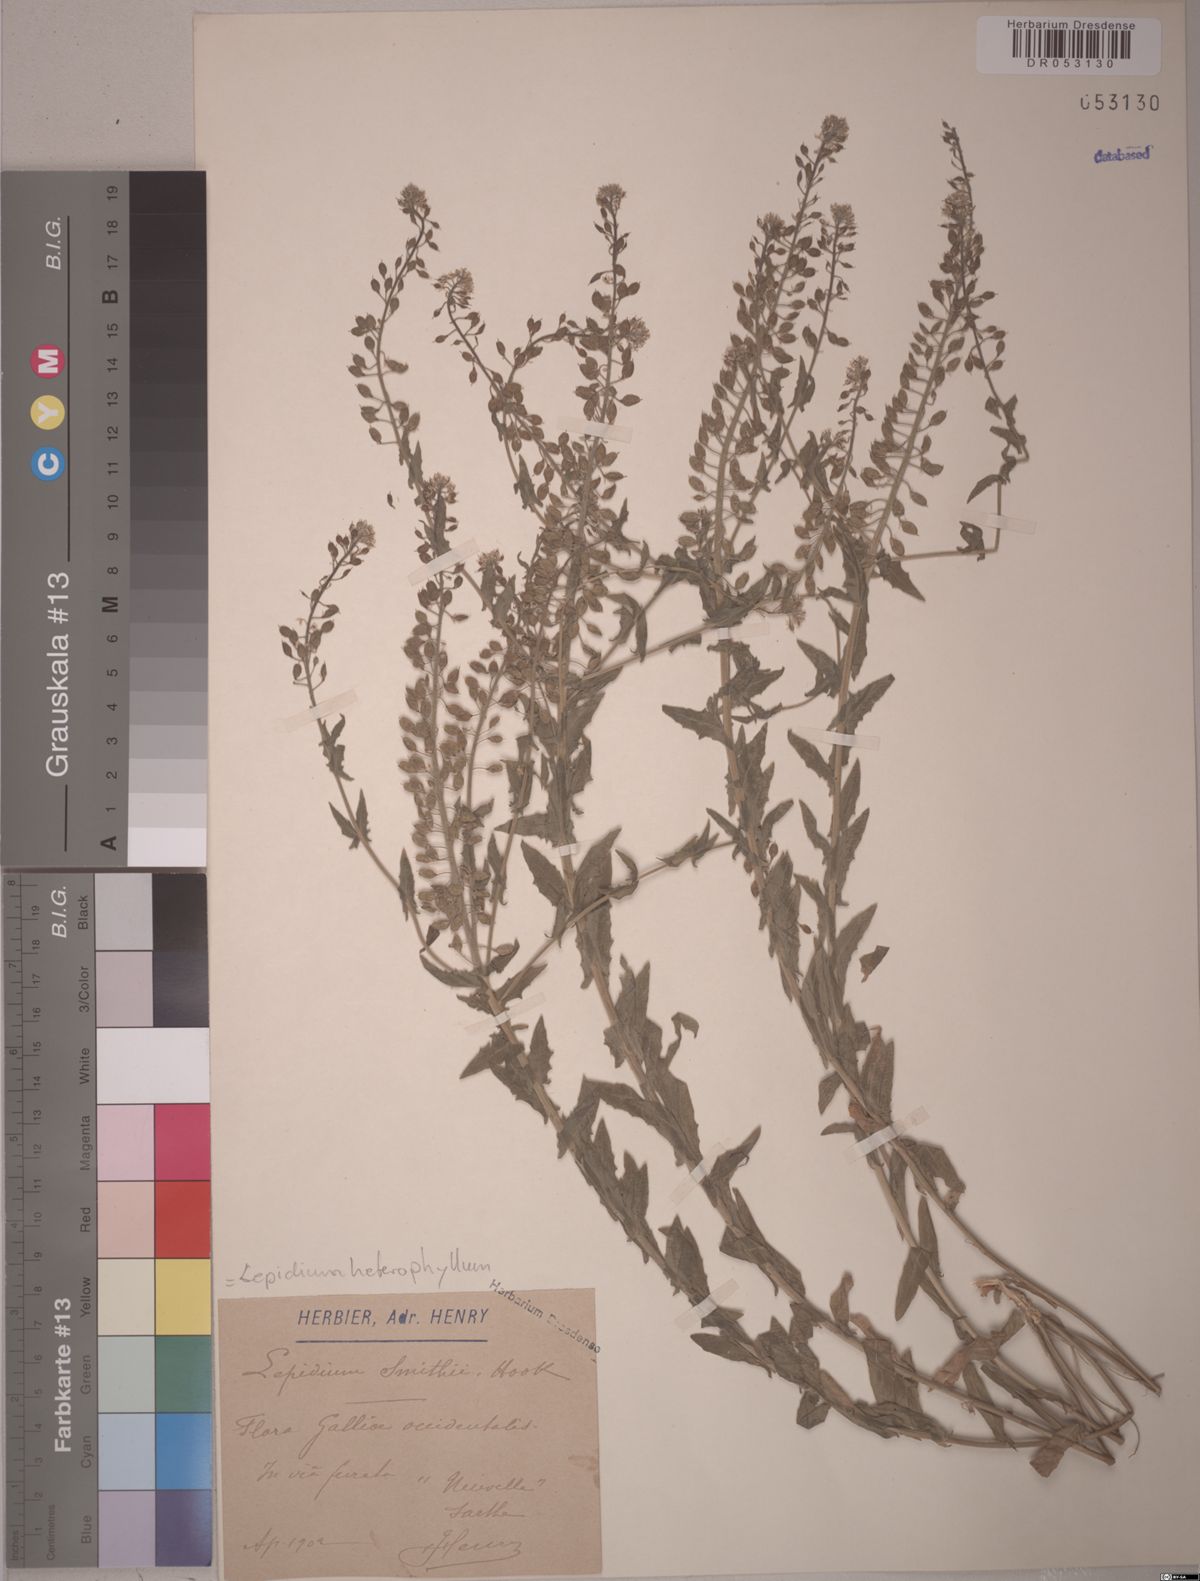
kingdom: Plantae
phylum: Tracheophyta
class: Magnoliopsida
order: Brassicales
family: Brassicaceae
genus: Lepidium
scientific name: Lepidium heterophyllum
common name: Smith's pepperwort
